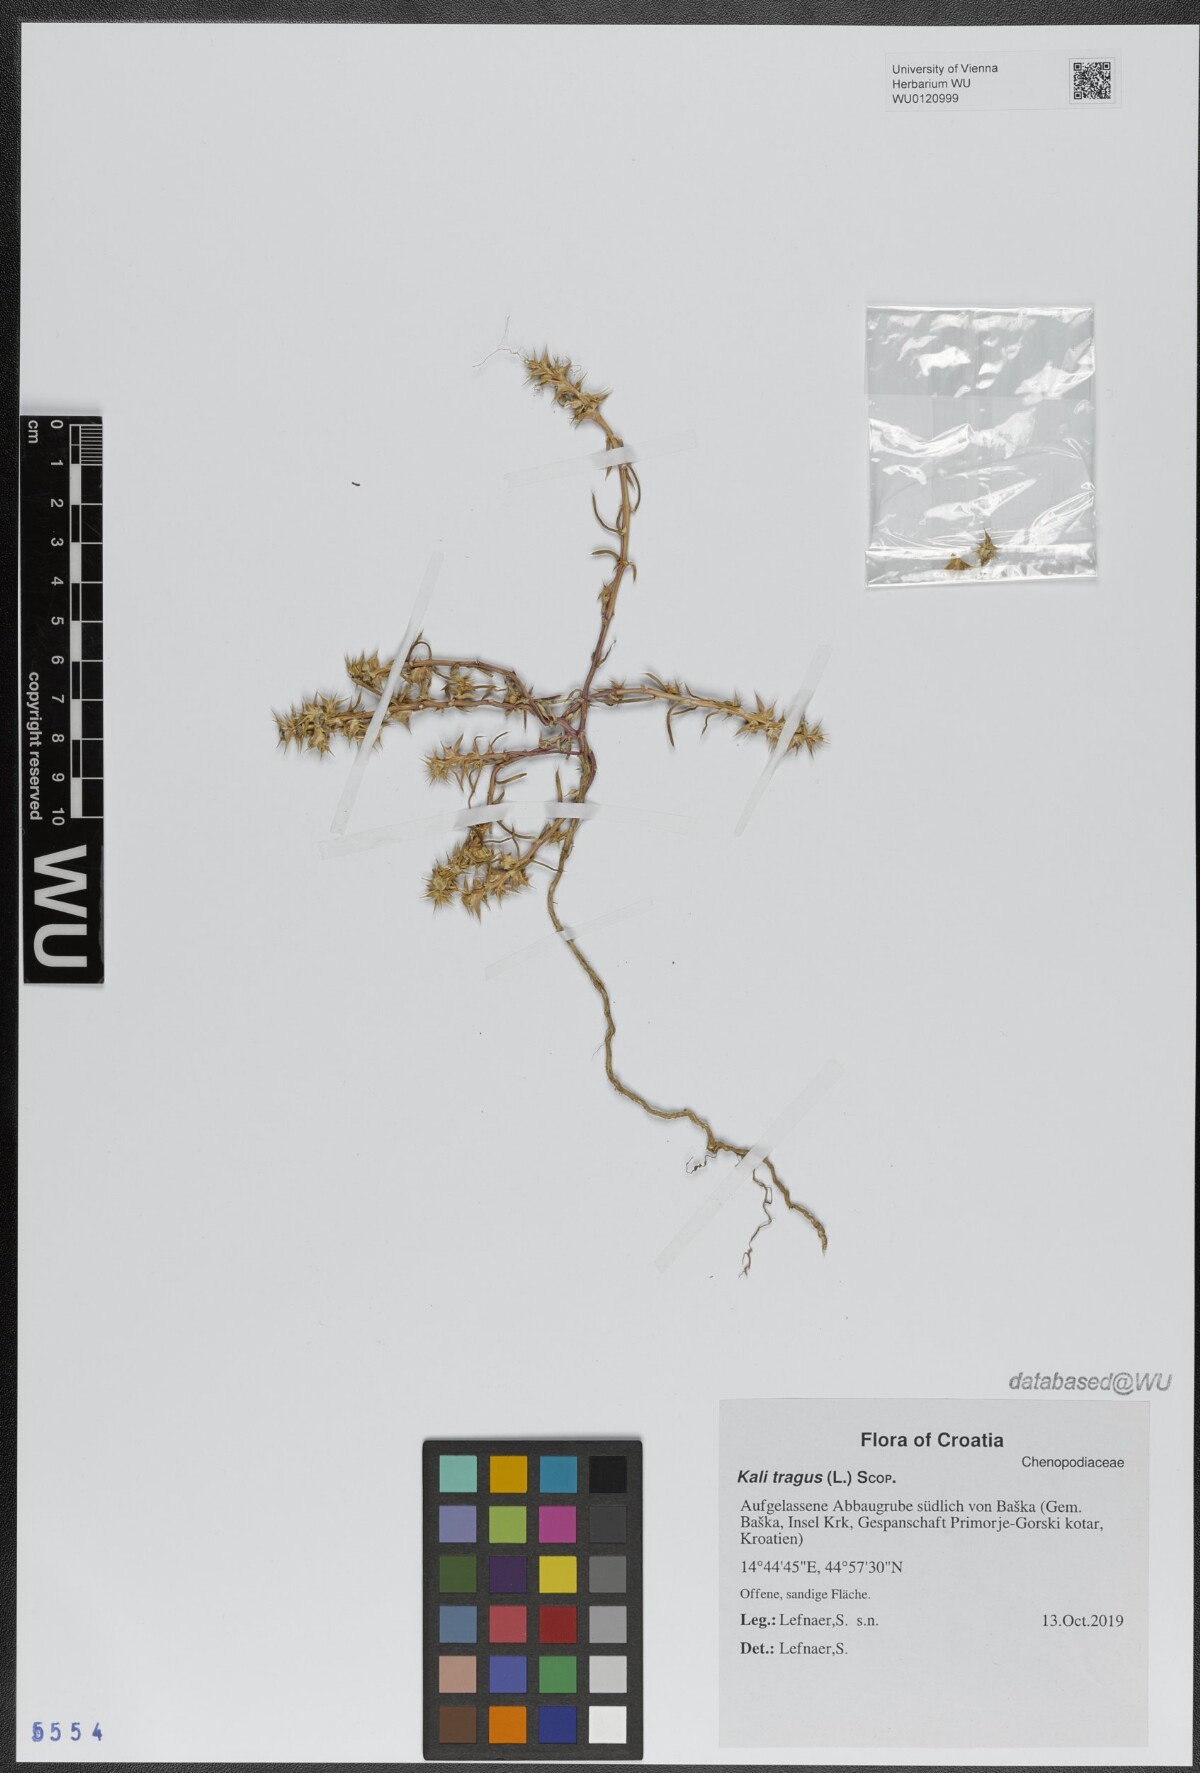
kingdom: Plantae
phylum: Tracheophyta
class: Magnoliopsida
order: Caryophyllales
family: Amaranthaceae
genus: Salsola
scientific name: Salsola tragus
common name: Prickly russian thistle
